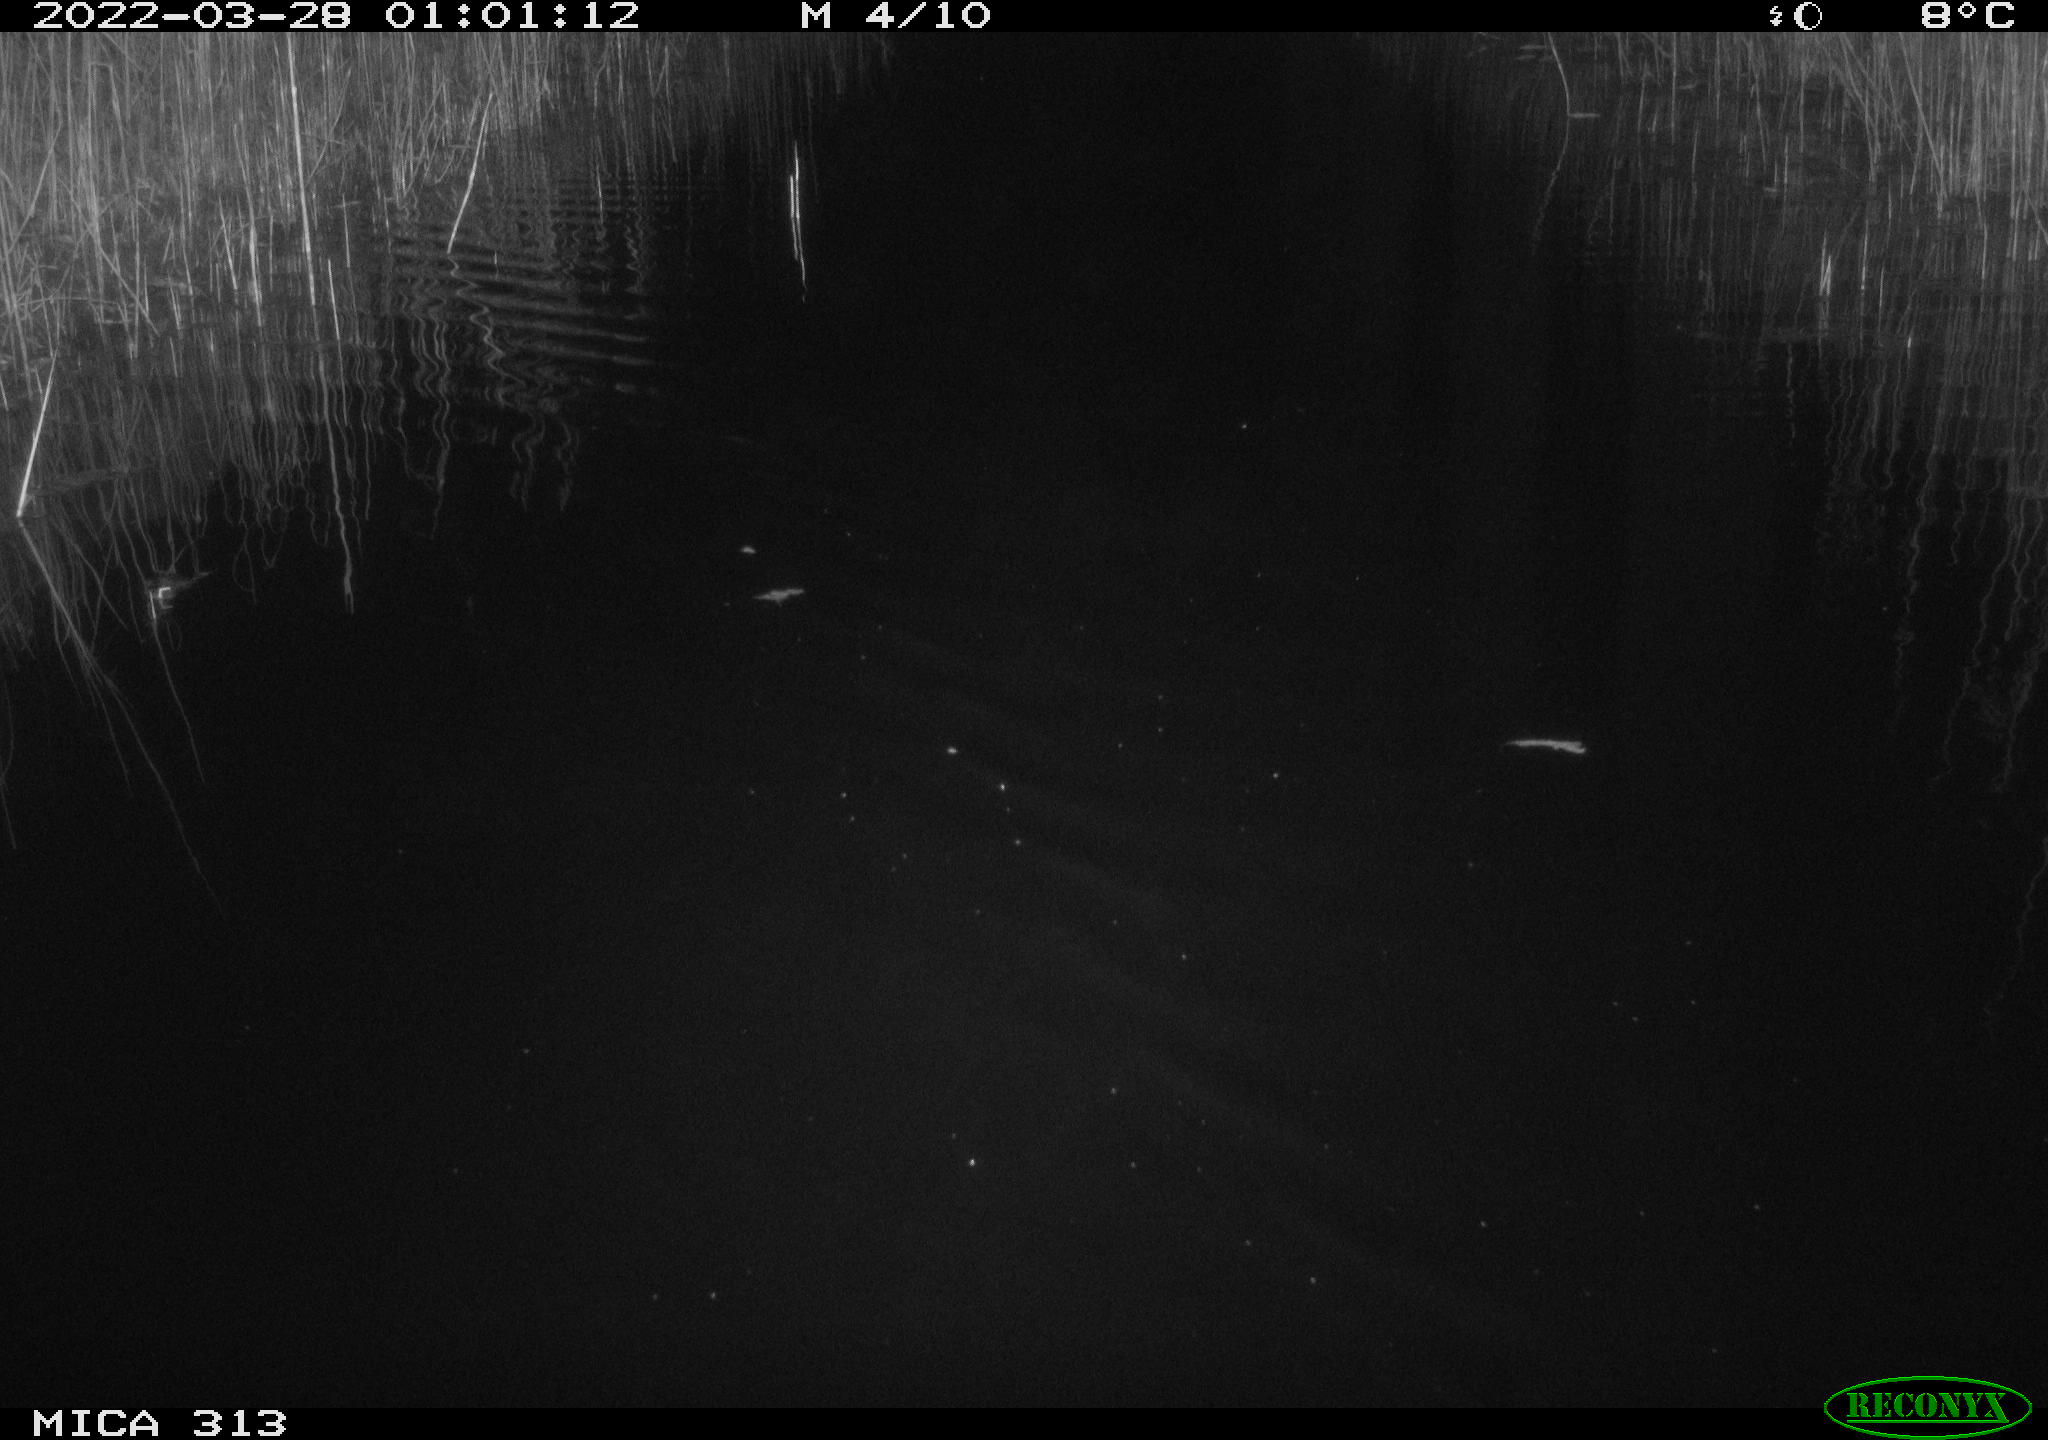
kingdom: Animalia
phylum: Chordata
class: Aves
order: Gruiformes
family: Rallidae
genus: Gallinula
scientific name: Gallinula chloropus
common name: Common moorhen
